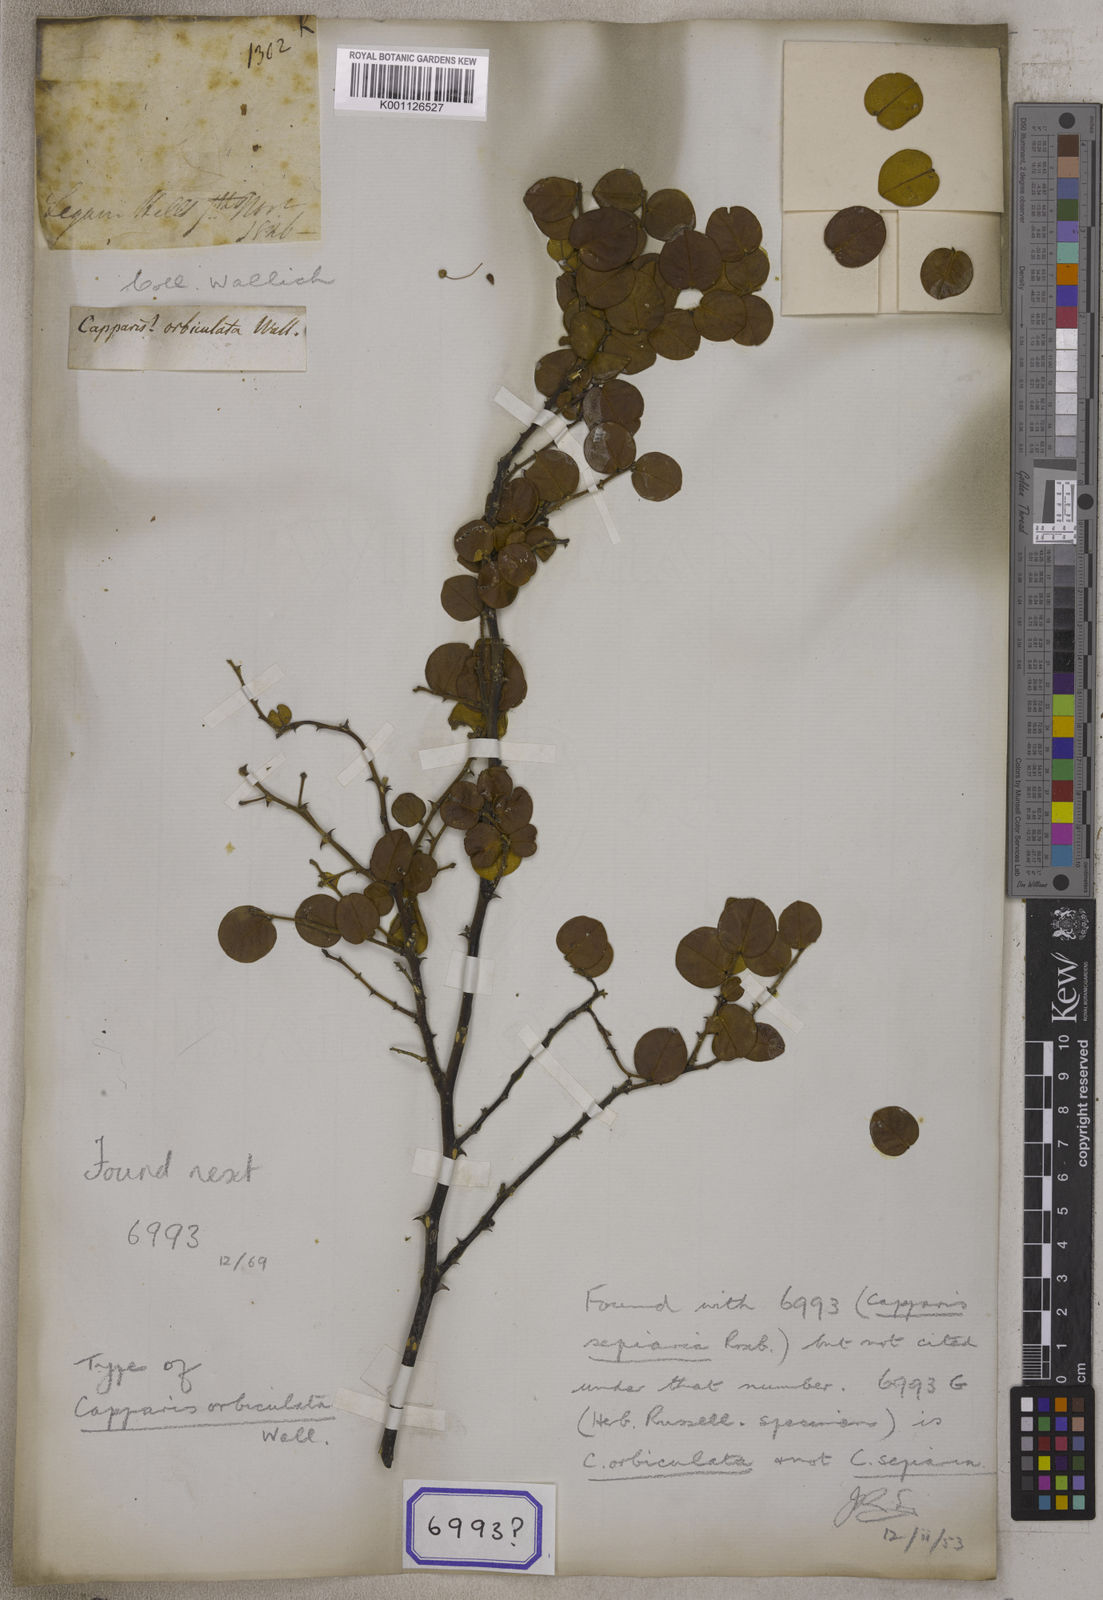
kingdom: Plantae
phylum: Tracheophyta
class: Magnoliopsida
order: Brassicales
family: Capparaceae
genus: Capparis
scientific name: Capparis
